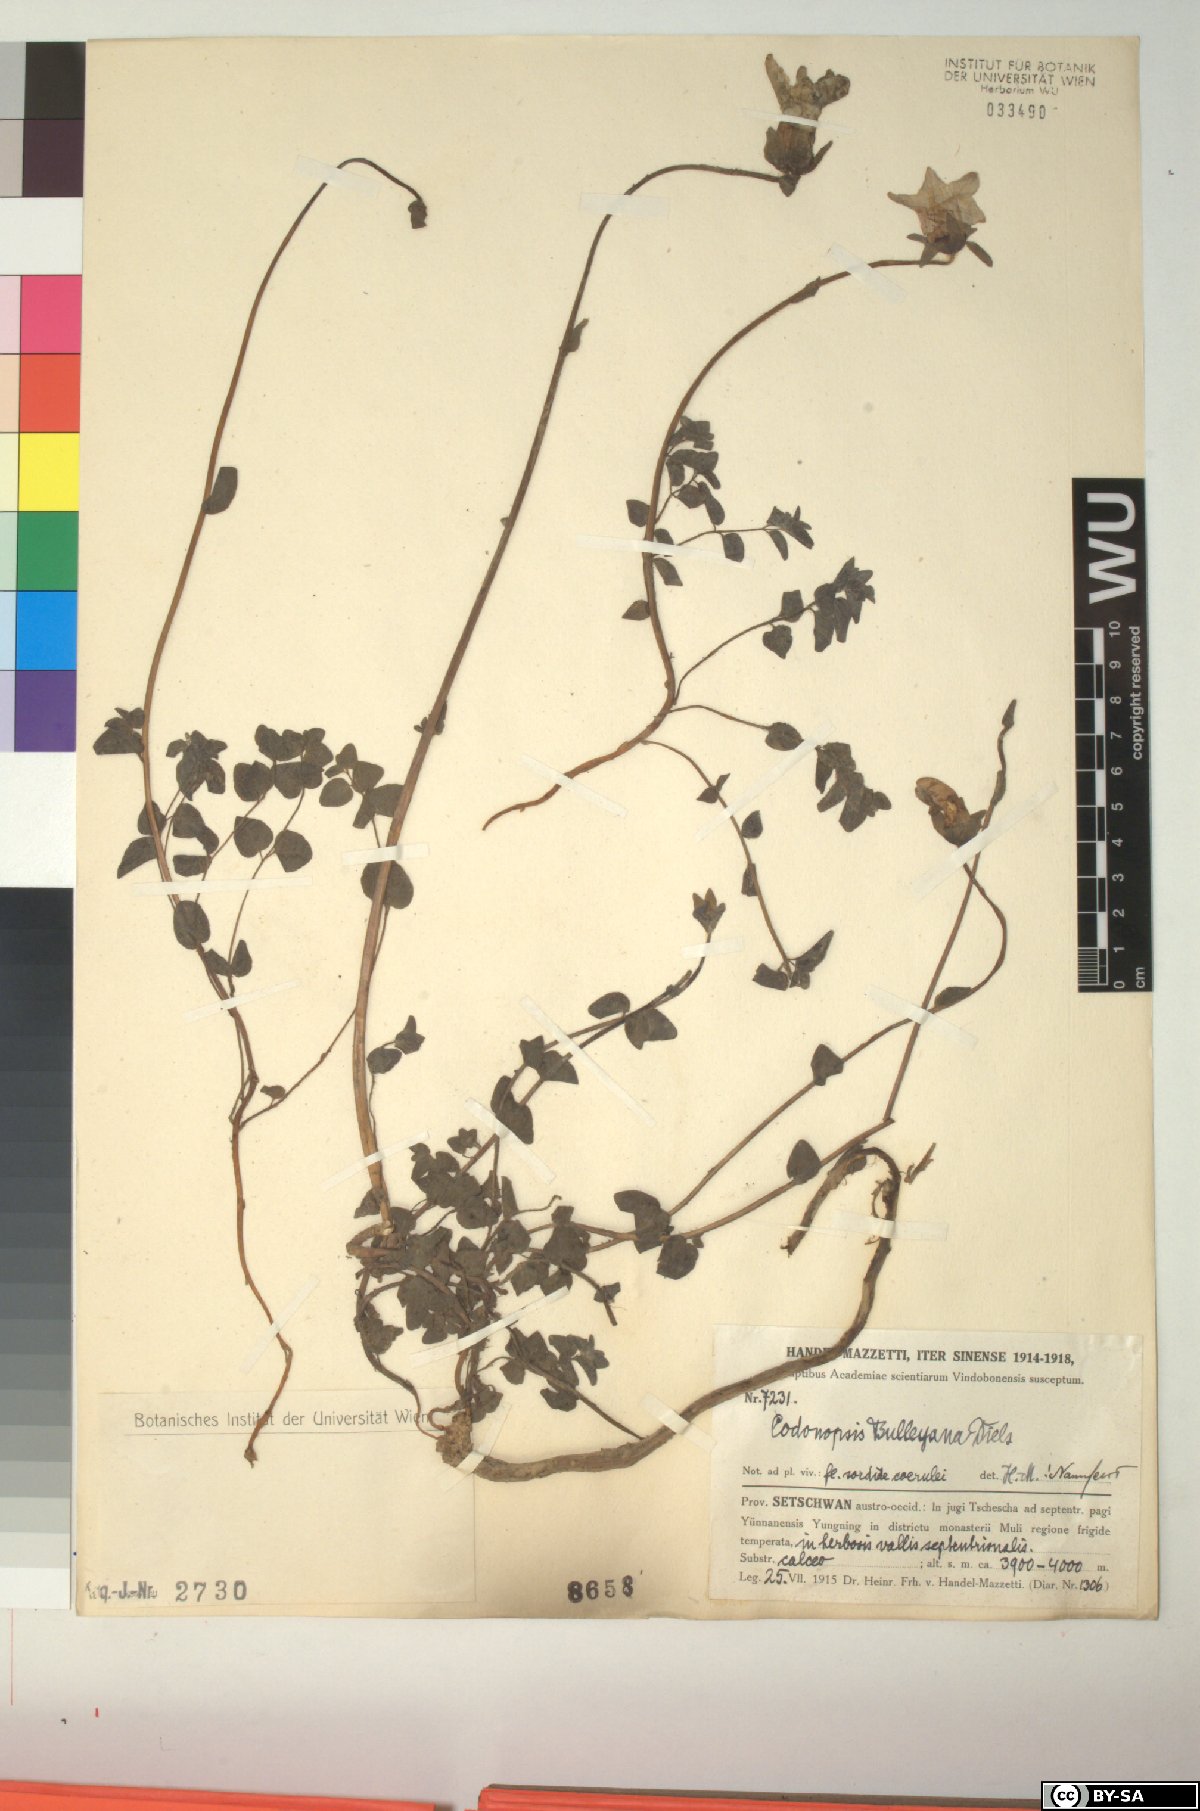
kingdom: Plantae
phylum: Tracheophyta
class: Magnoliopsida
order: Asterales
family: Campanulaceae
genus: Codonopsis
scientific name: Codonopsis bulleyana
